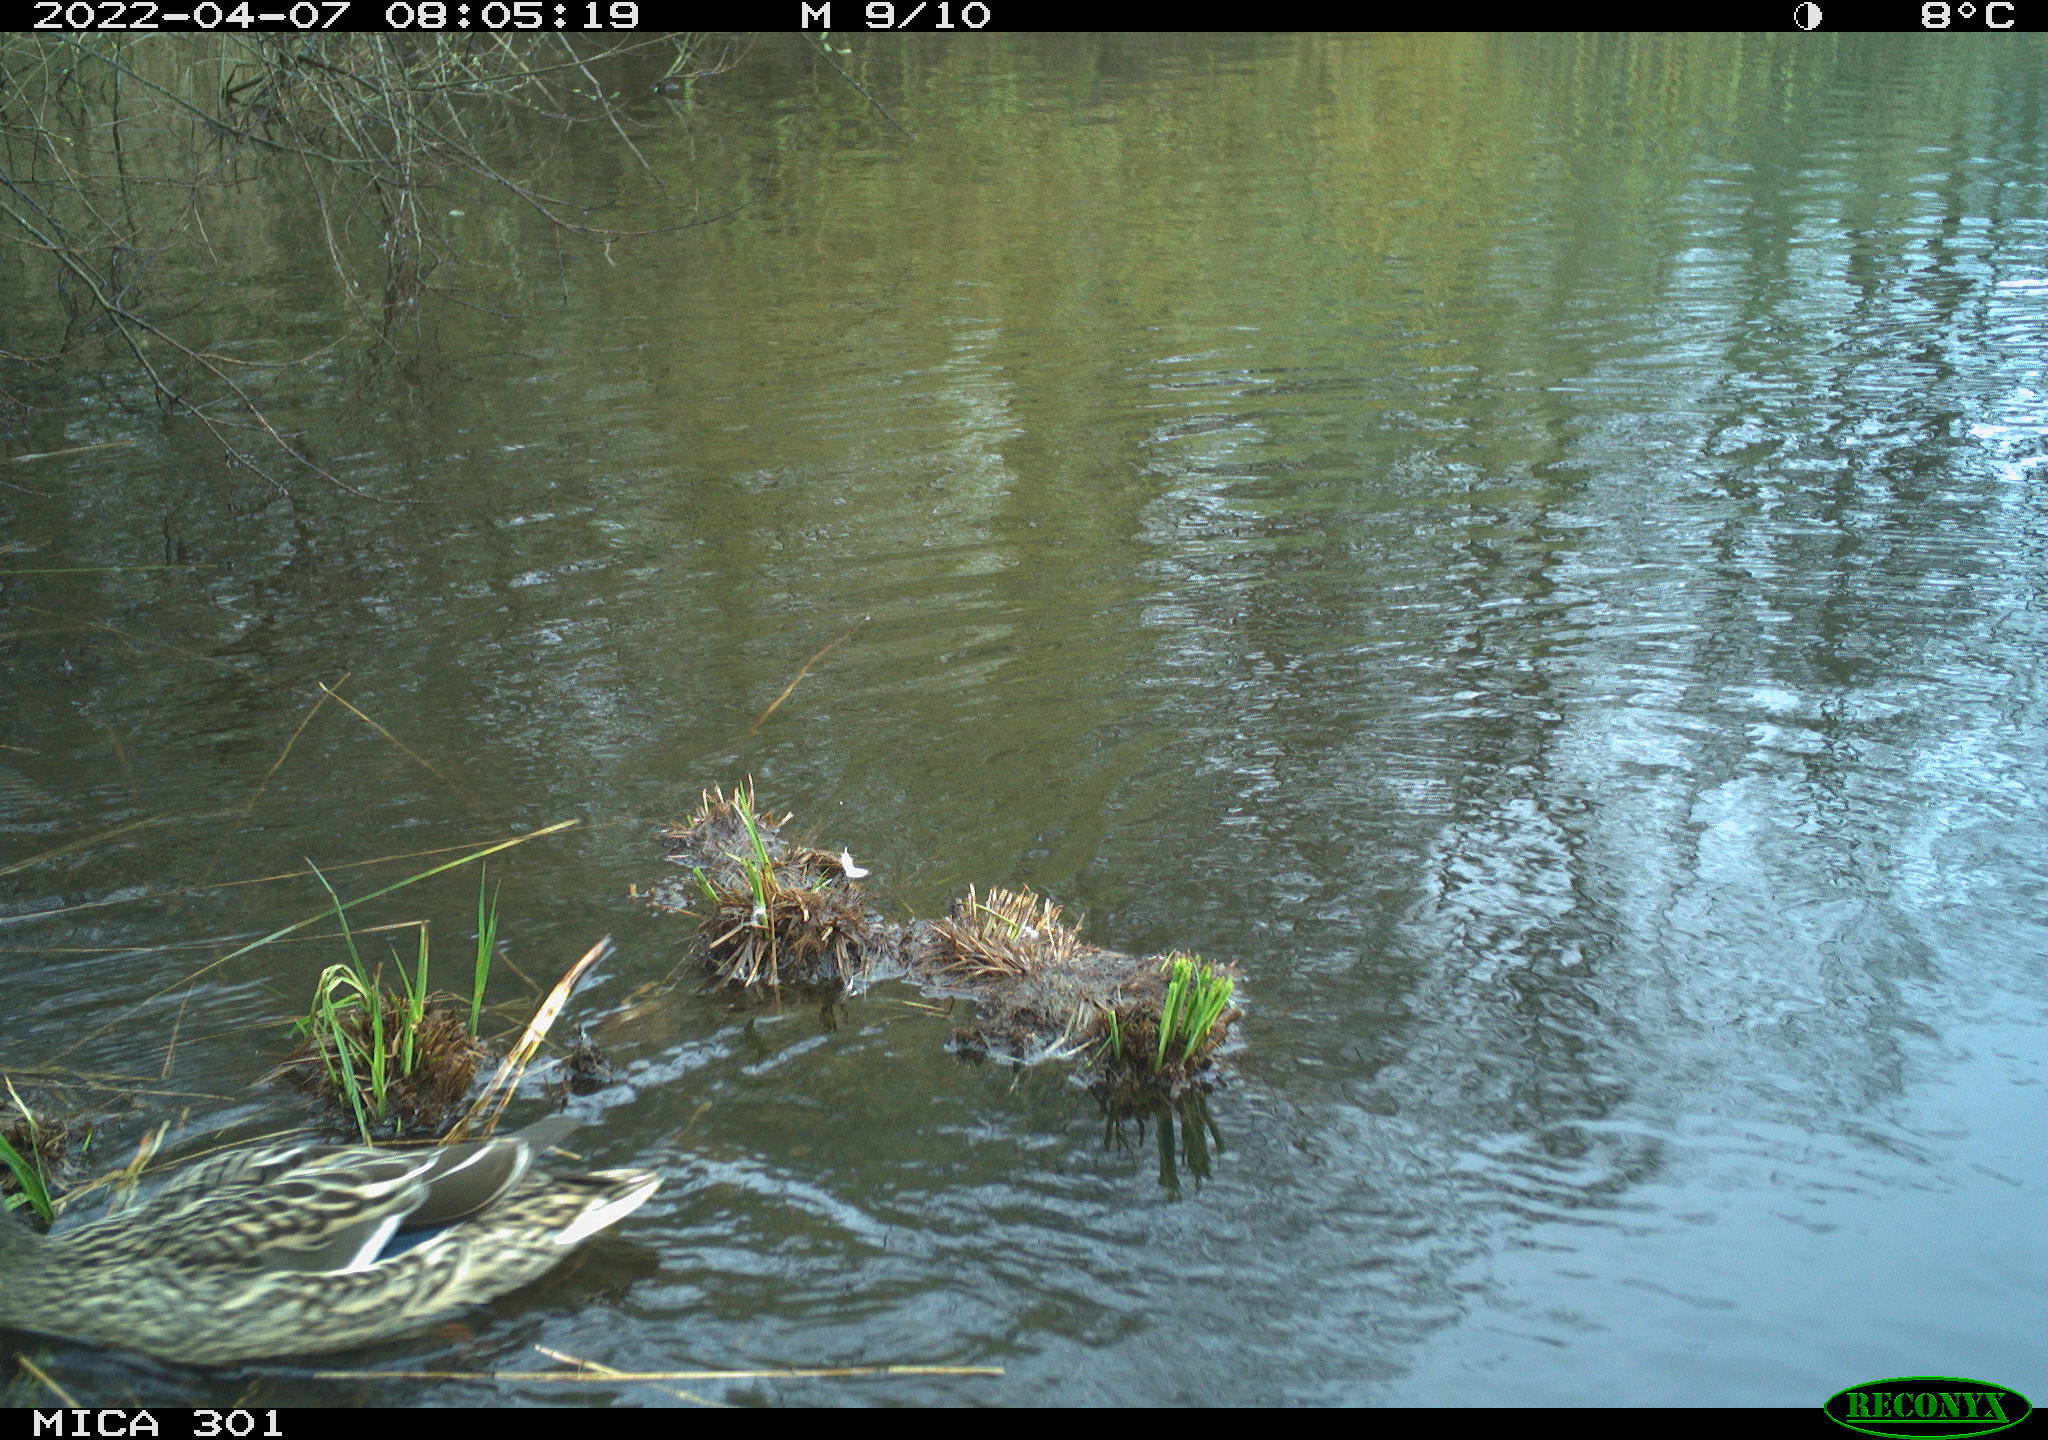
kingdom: Animalia
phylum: Chordata
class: Aves
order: Anseriformes
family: Anatidae
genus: Anas
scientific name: Anas platyrhynchos
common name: Mallard
